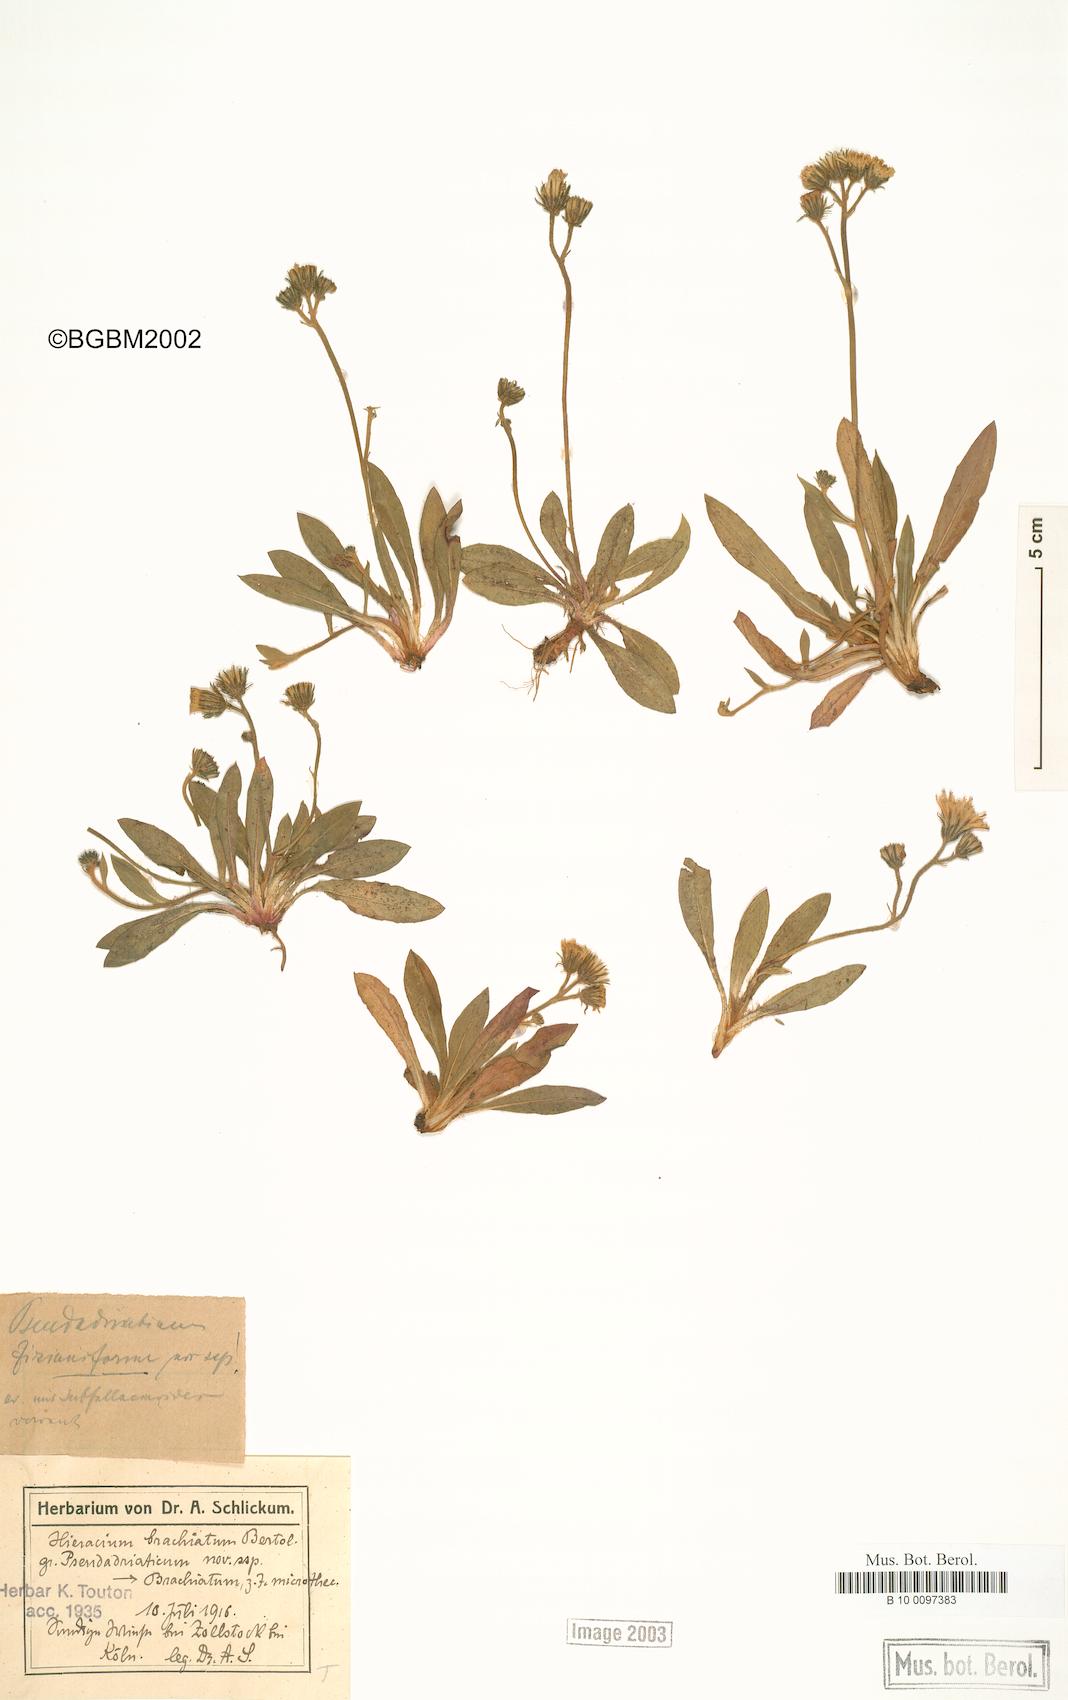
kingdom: Plantae
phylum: Tracheophyta
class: Magnoliopsida
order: Asterales
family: Asteraceae
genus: Pilosella
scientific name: Pilosella visianii
